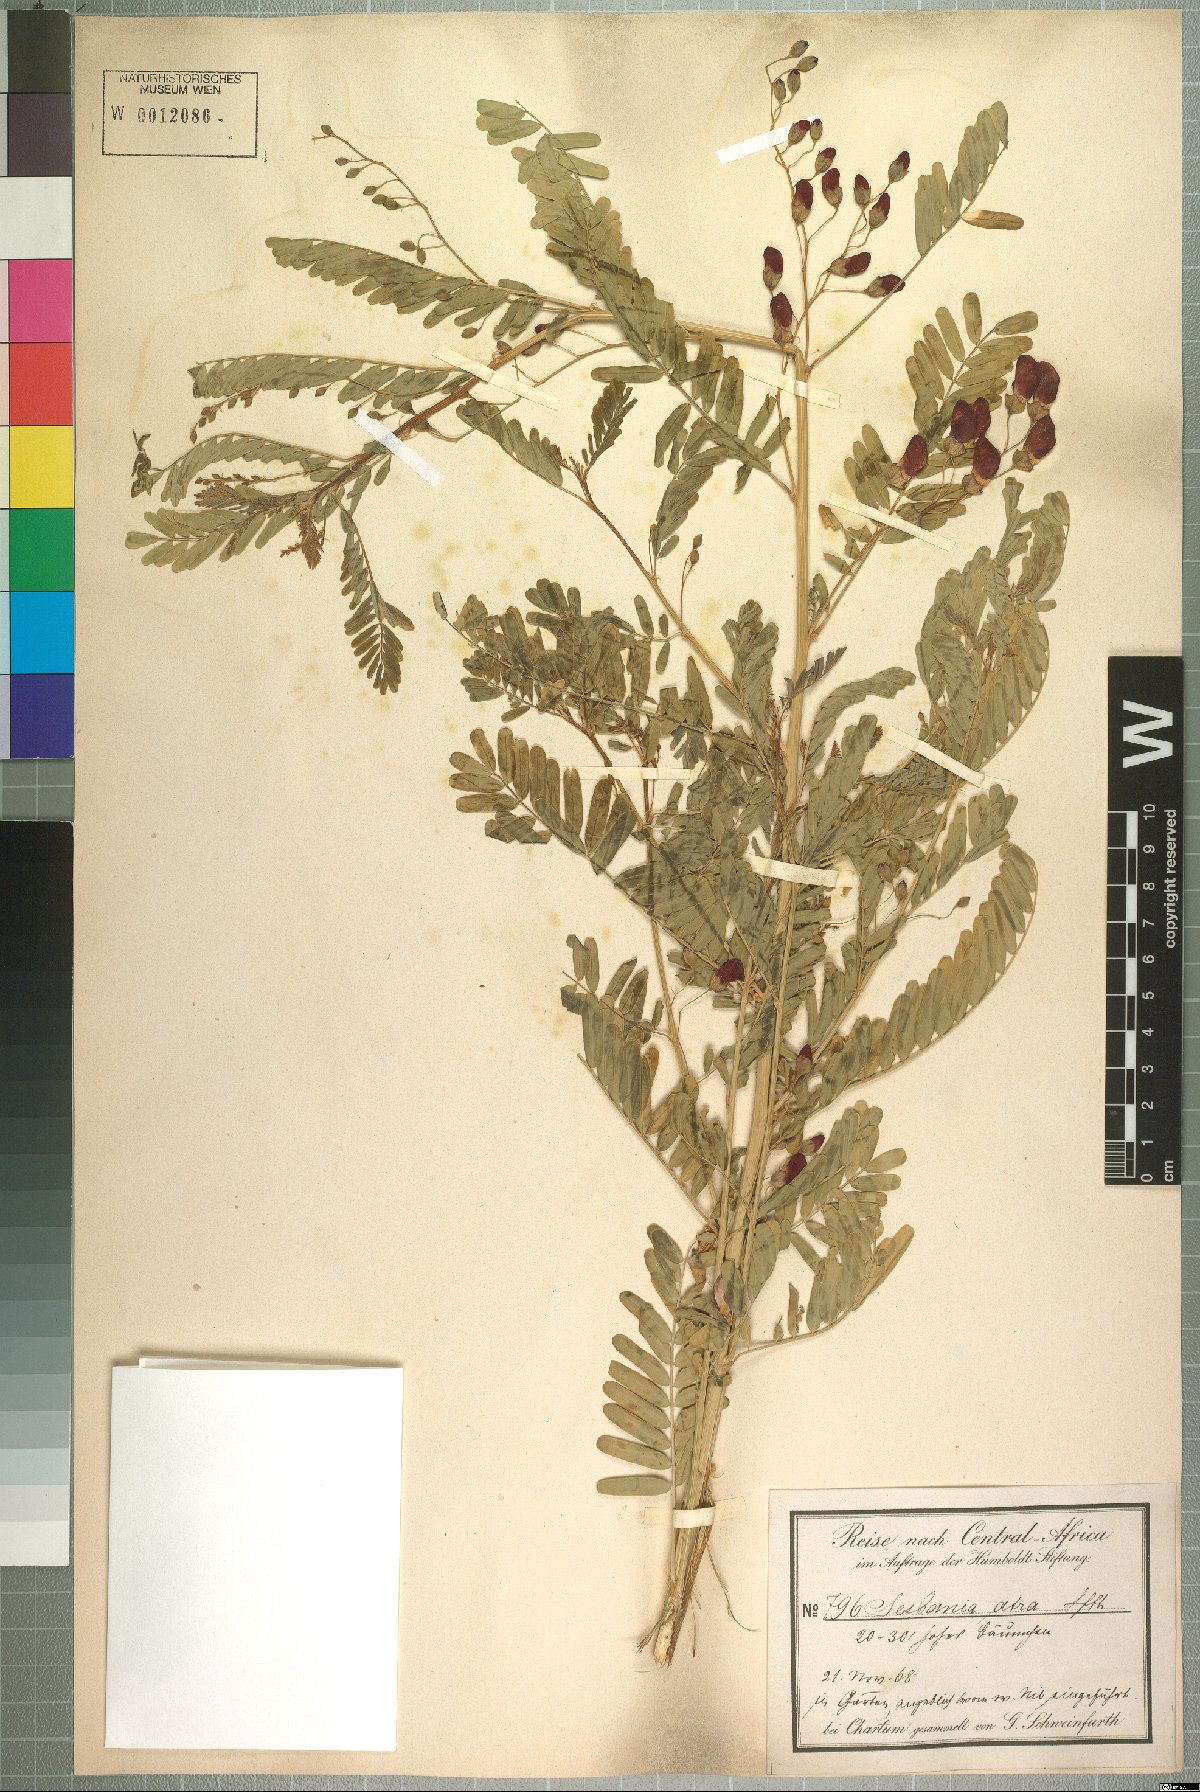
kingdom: Plantae
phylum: Tracheophyta
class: Magnoliopsida
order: Fabales
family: Fabaceae
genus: Sesbania
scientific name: Sesbania sesban
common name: Egyptian sesban
